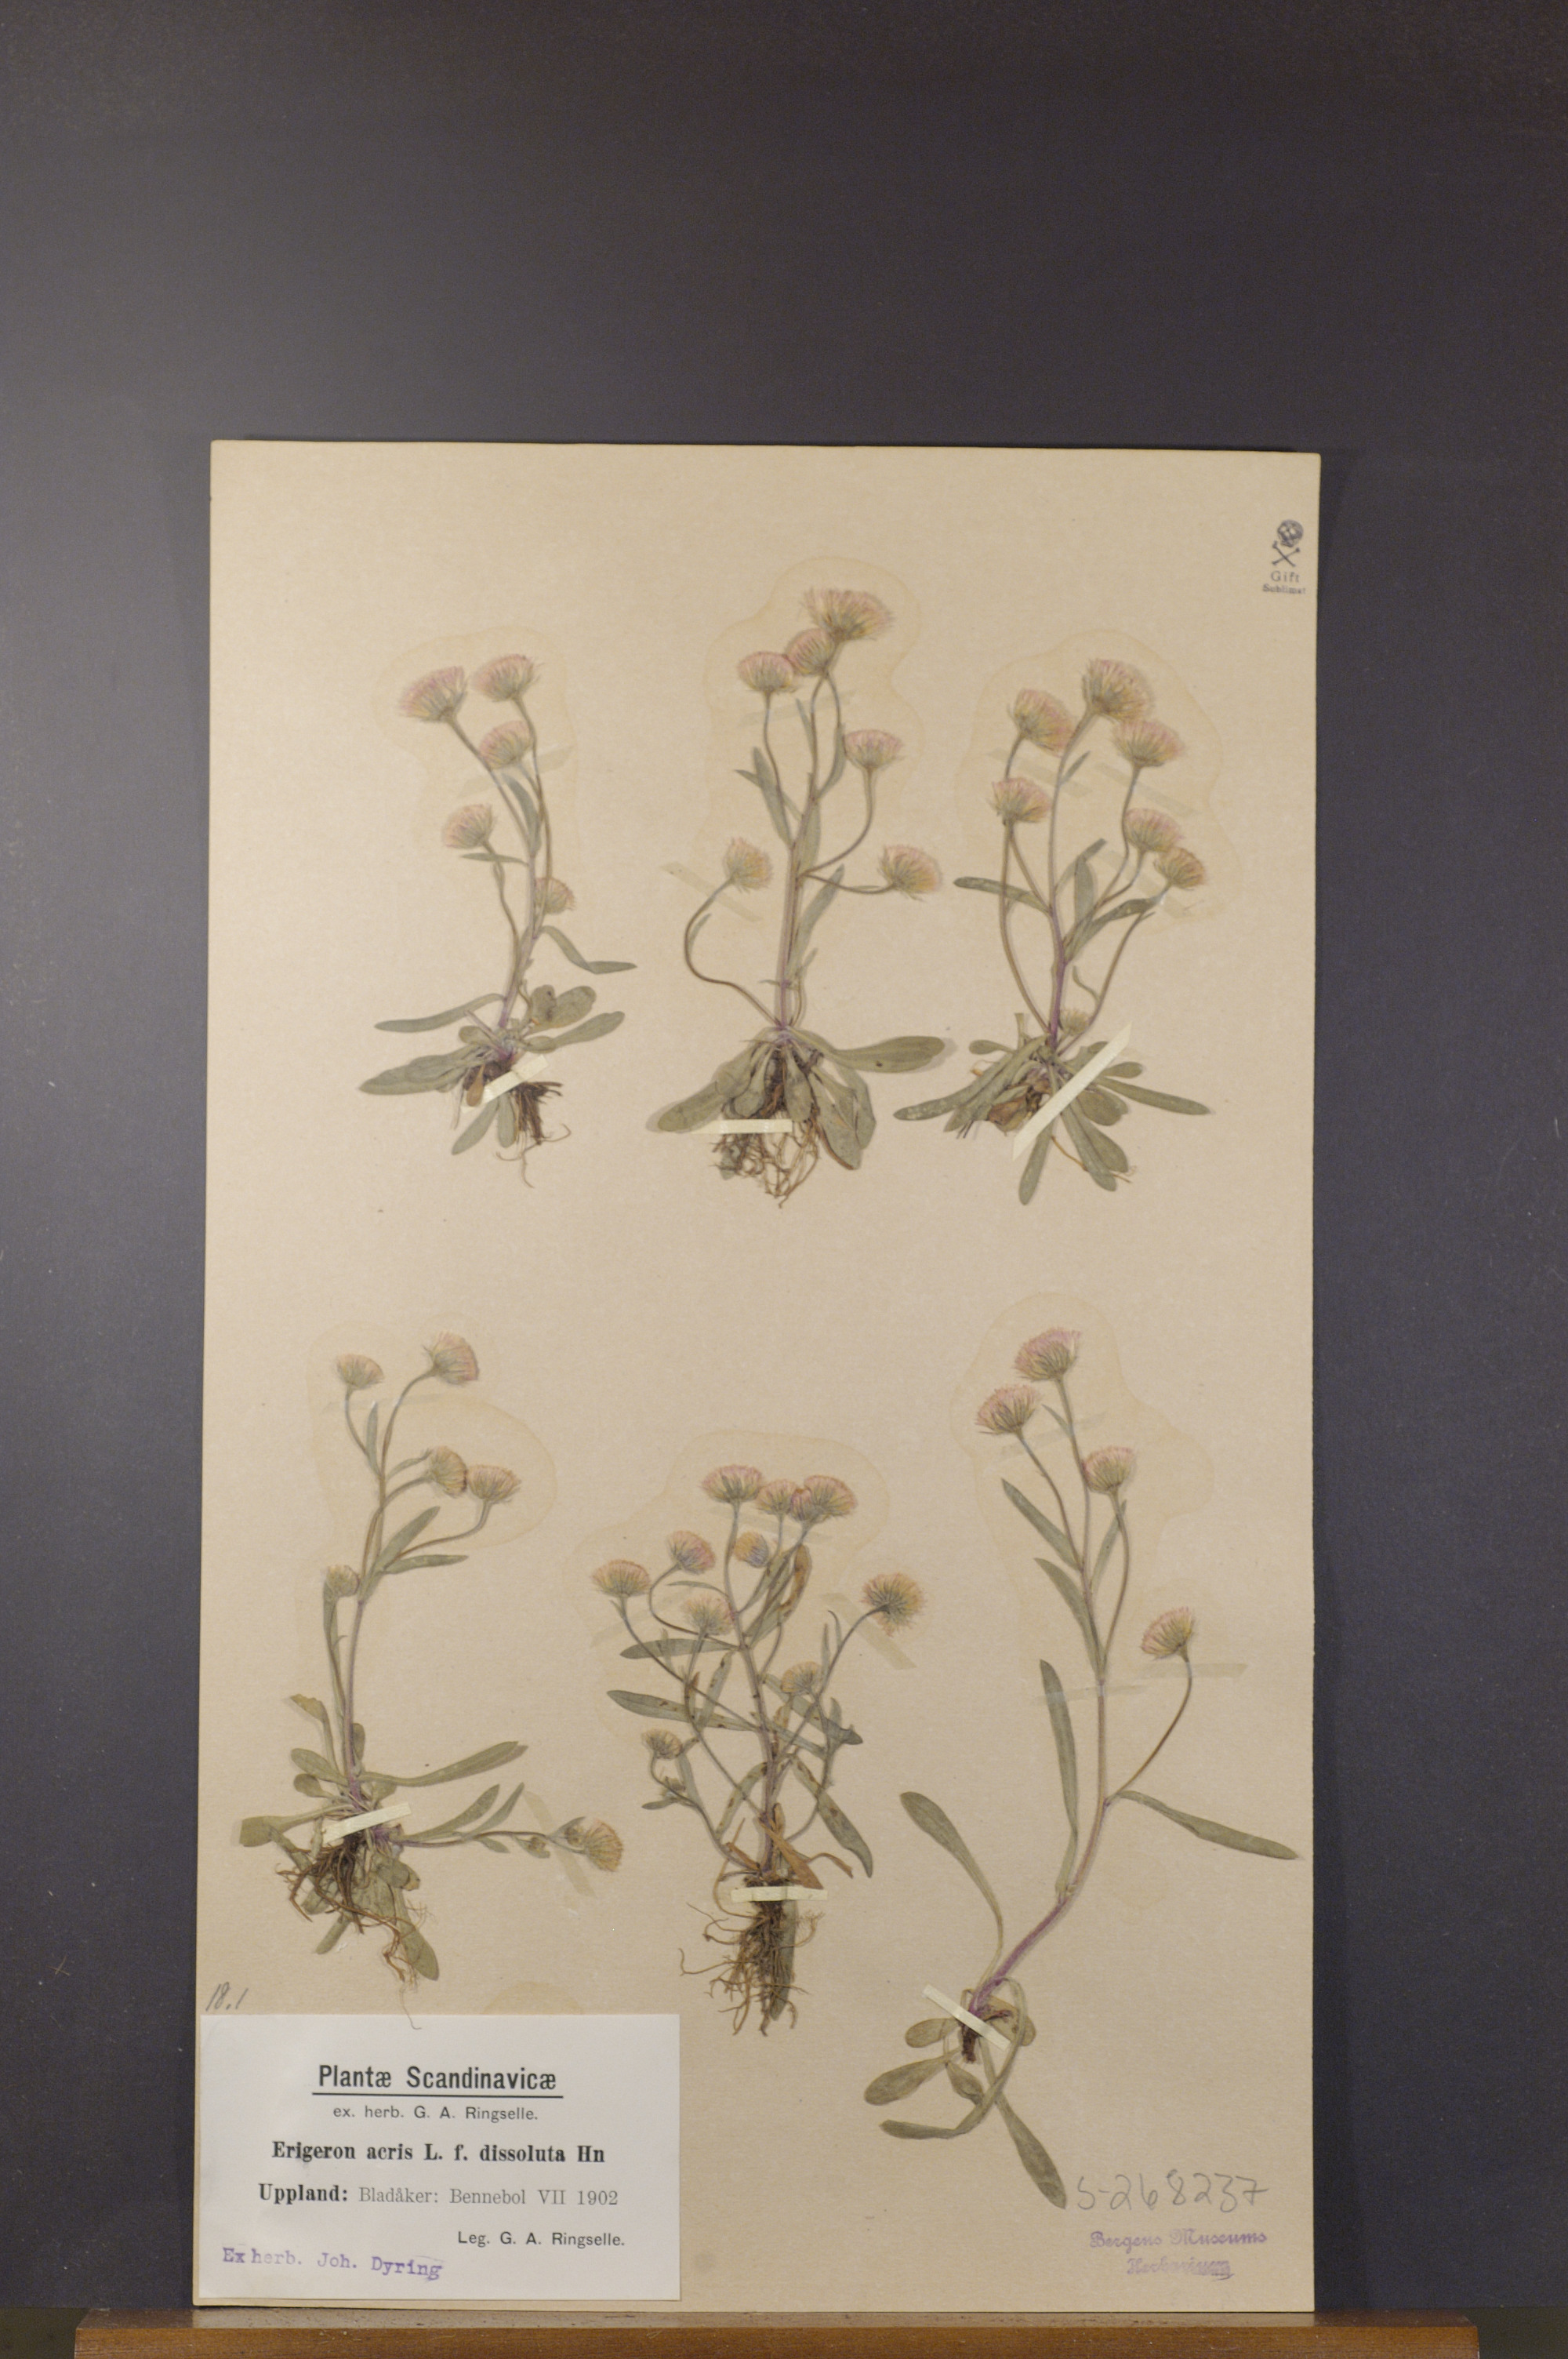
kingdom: Plantae
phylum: Tracheophyta
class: Magnoliopsida
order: Asterales
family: Asteraceae
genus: Erigeron
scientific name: Erigeron acris
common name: Blue fleabane
